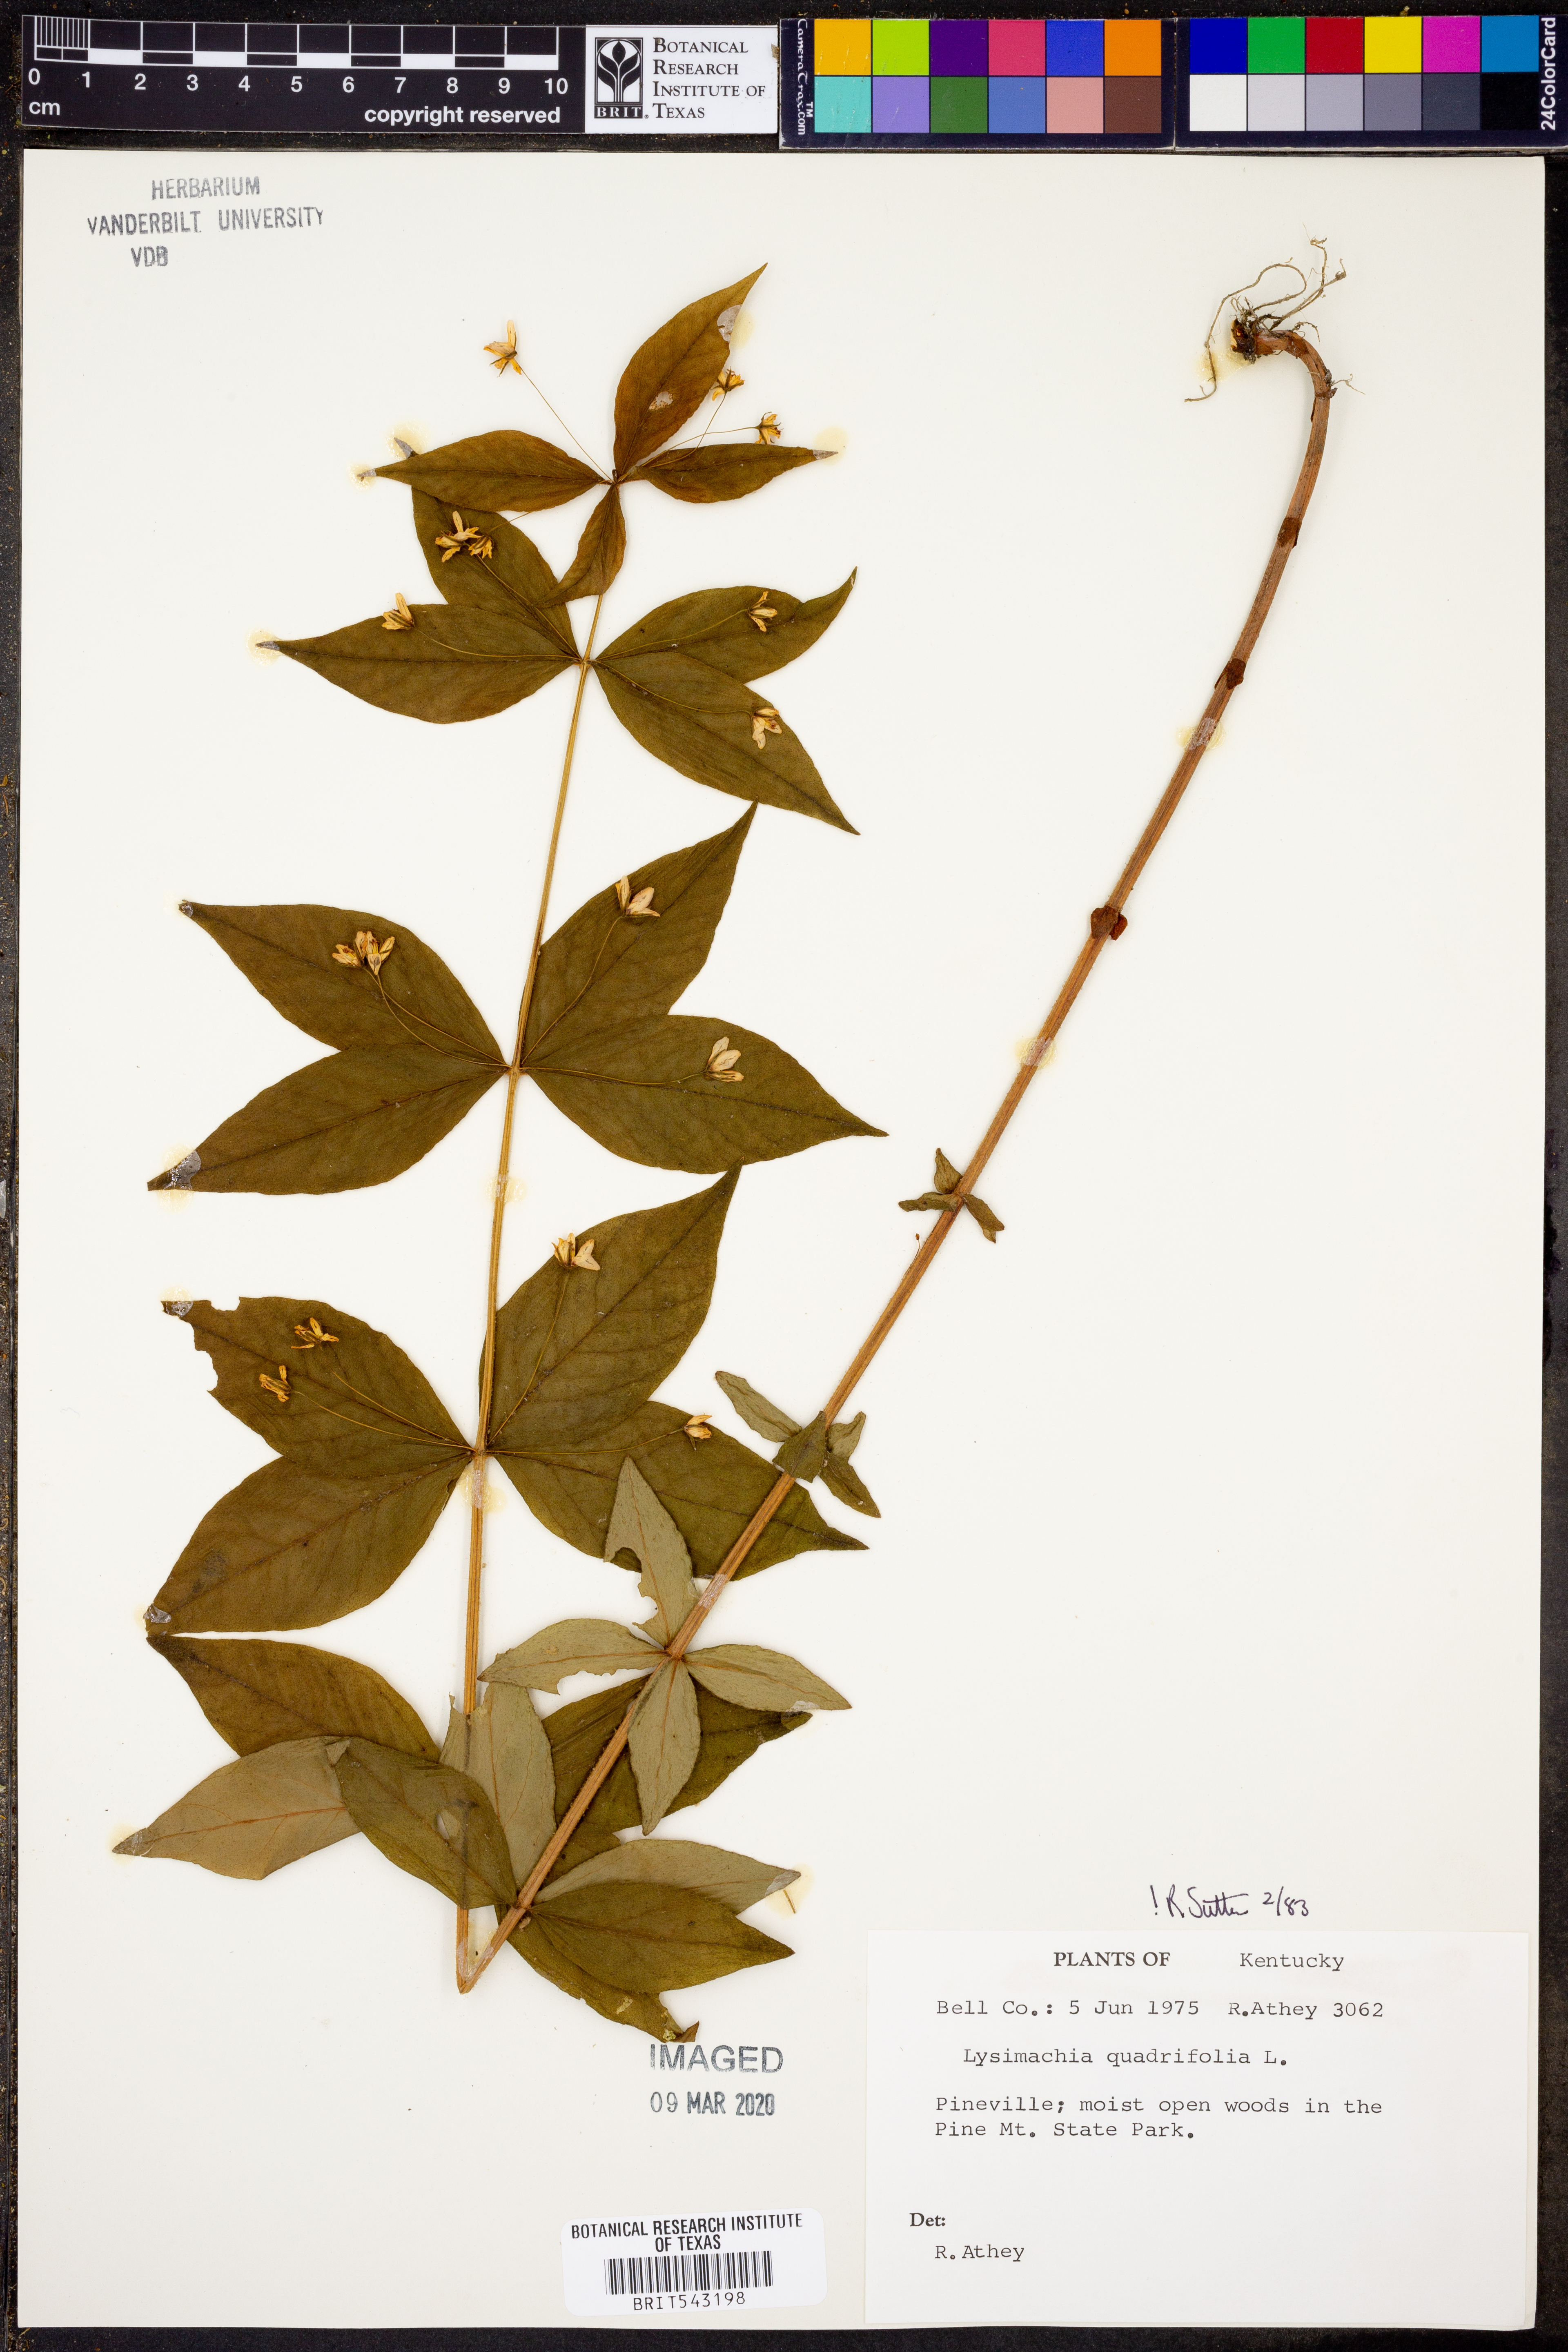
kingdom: Plantae
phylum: Tracheophyta
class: Magnoliopsida
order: Ericales
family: Primulaceae
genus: Lysimachia
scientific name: Lysimachia quadrifolia
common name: Whorled loosestrife
